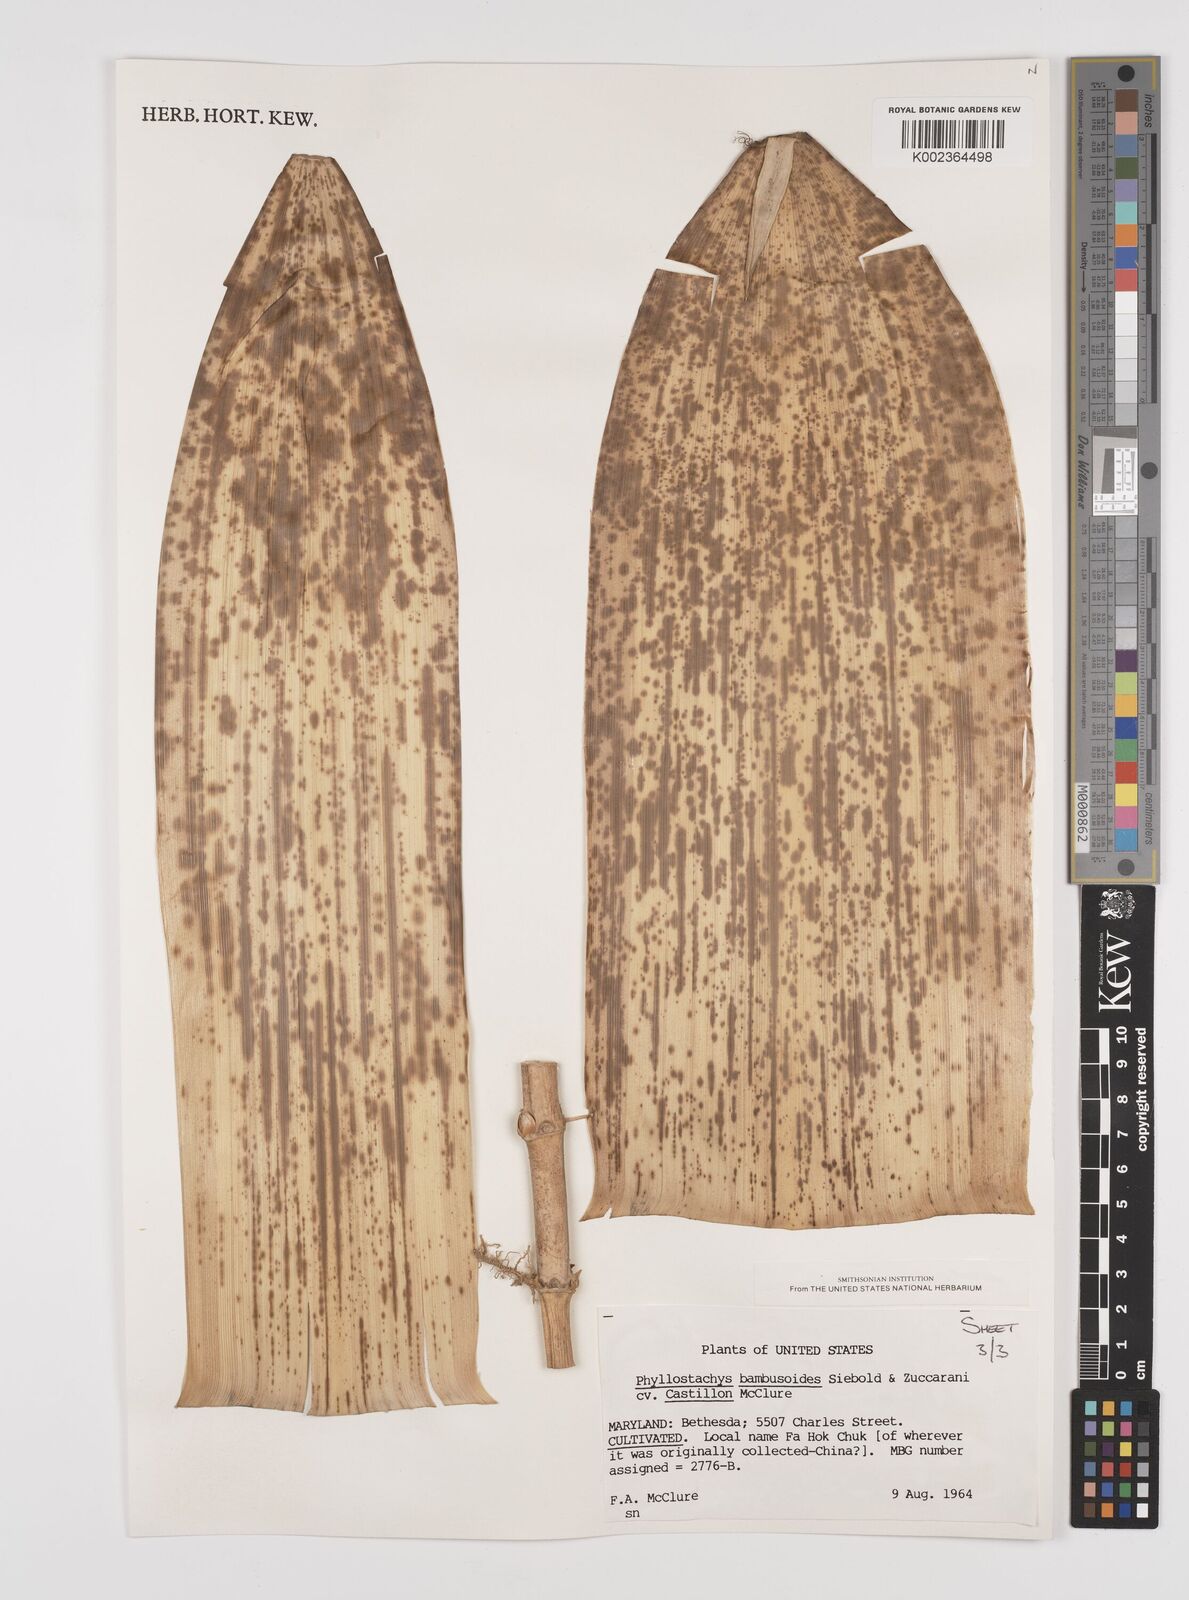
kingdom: Plantae
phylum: Tracheophyta
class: Liliopsida
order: Poales
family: Poaceae
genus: Phyllostachys
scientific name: Phyllostachys reticulata
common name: Bamboo
